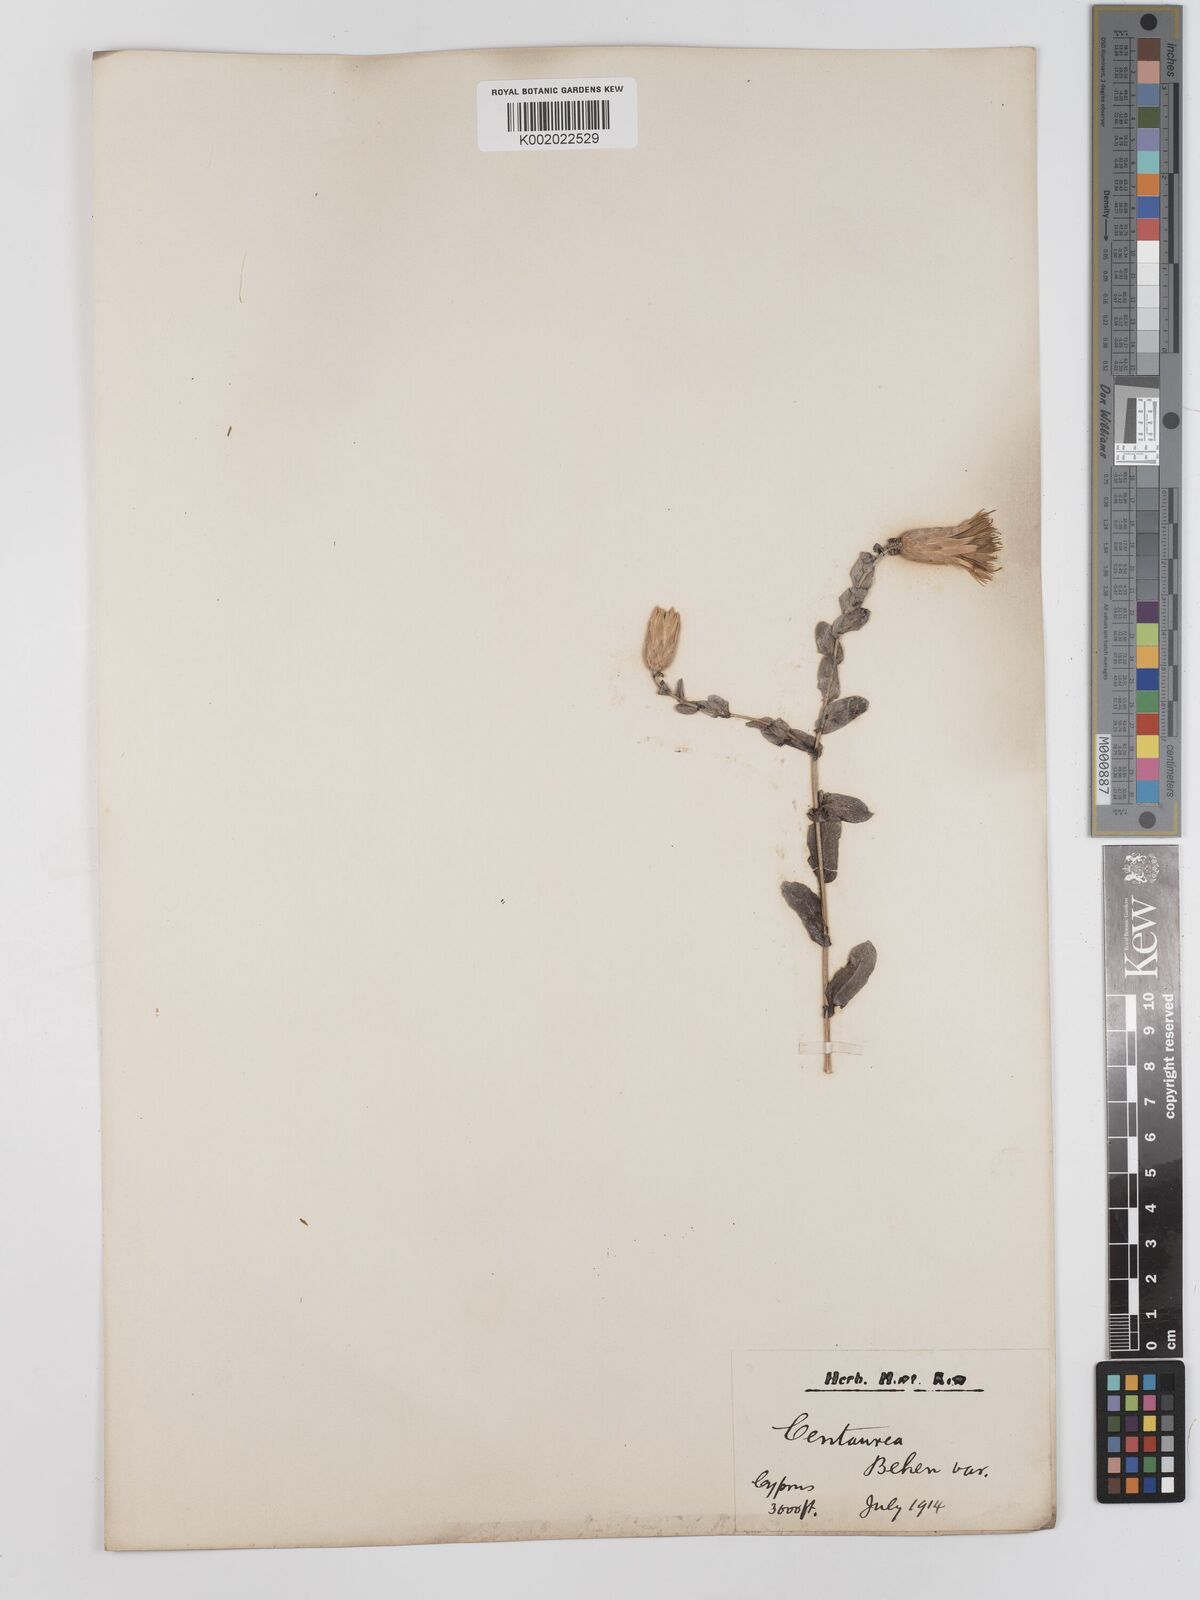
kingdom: Plantae
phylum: Tracheophyta
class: Magnoliopsida
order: Asterales
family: Asteraceae
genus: Klasea
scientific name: Klasea cerinthifolia
